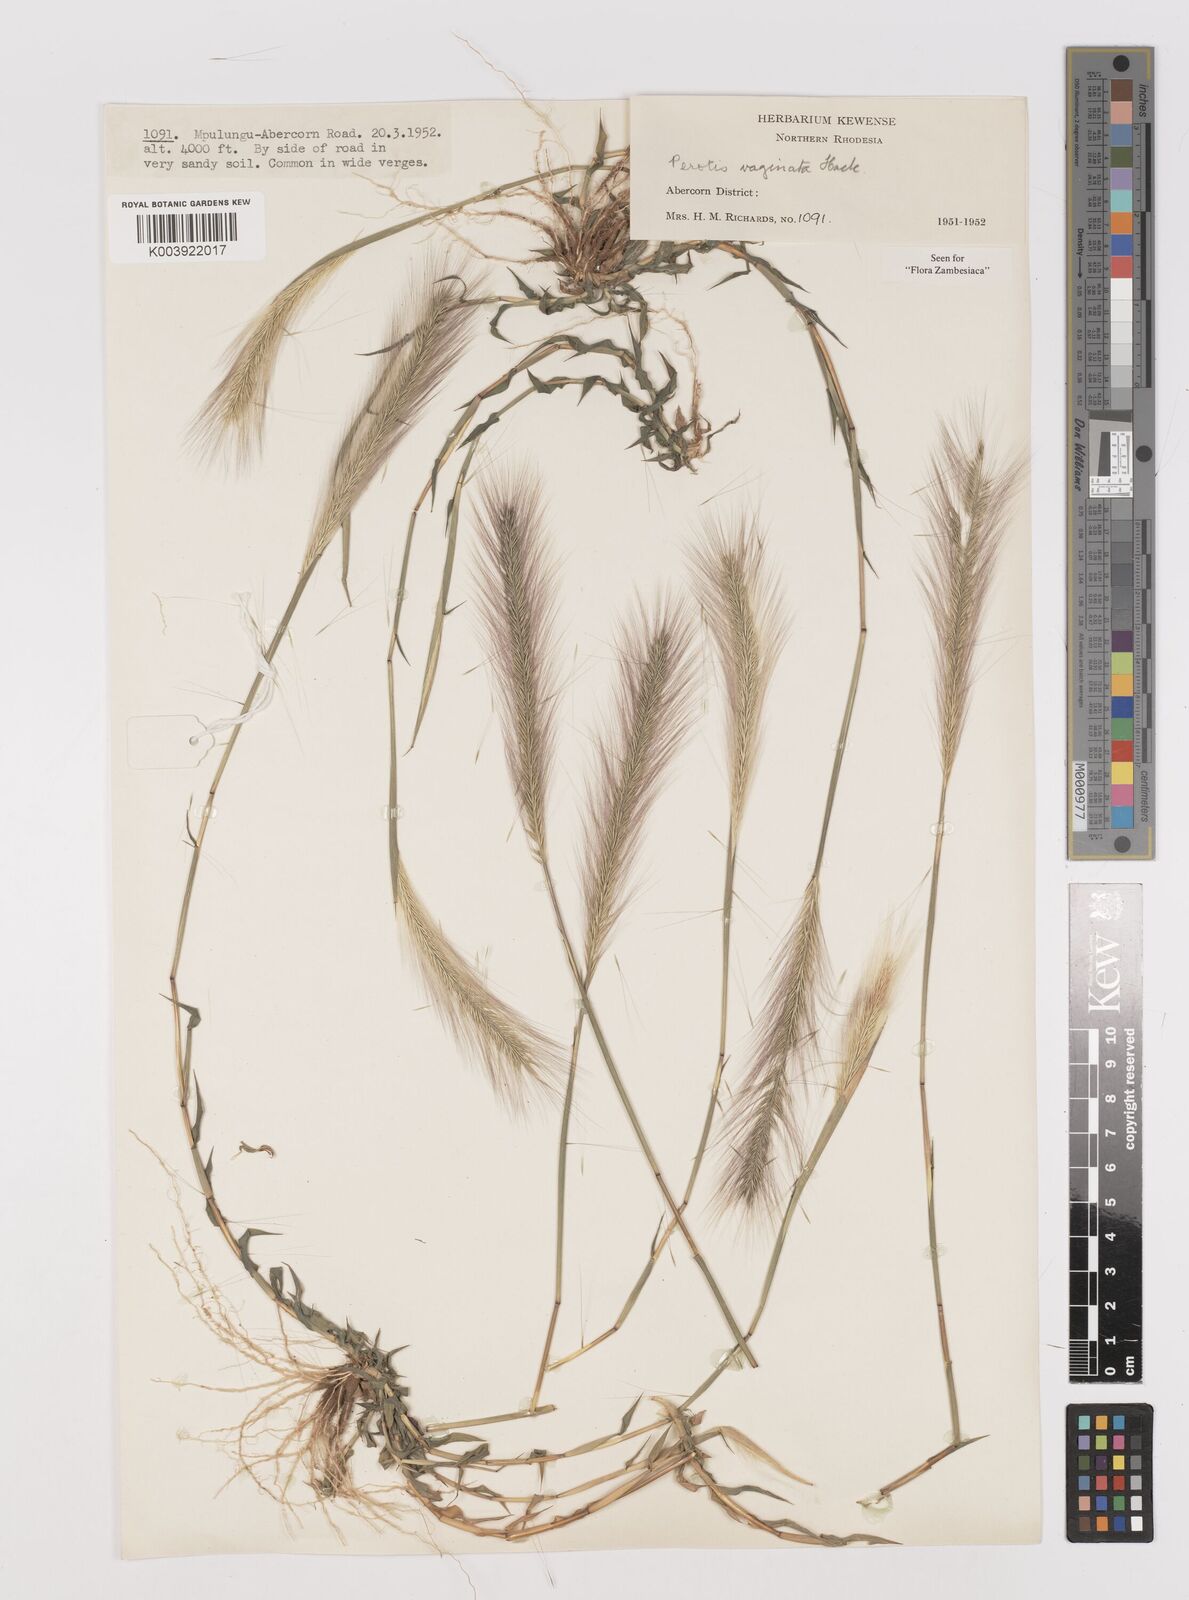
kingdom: Plantae
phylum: Tracheophyta
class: Liliopsida
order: Poales
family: Poaceae
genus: Perotis
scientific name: Perotis vaginata
